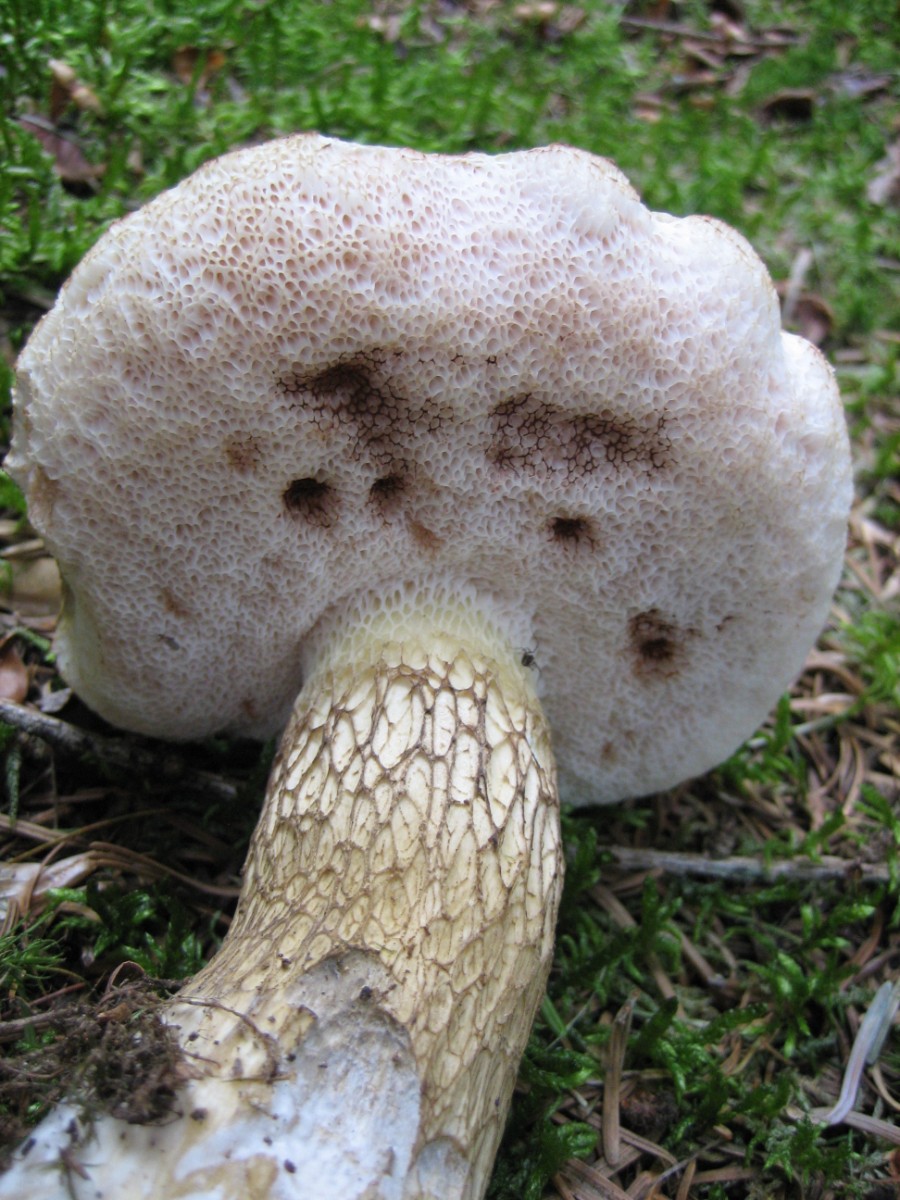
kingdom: Fungi
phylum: Basidiomycota
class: Agaricomycetes
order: Boletales
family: Boletaceae
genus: Tylopilus
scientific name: Tylopilus felleus
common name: galderørhat
